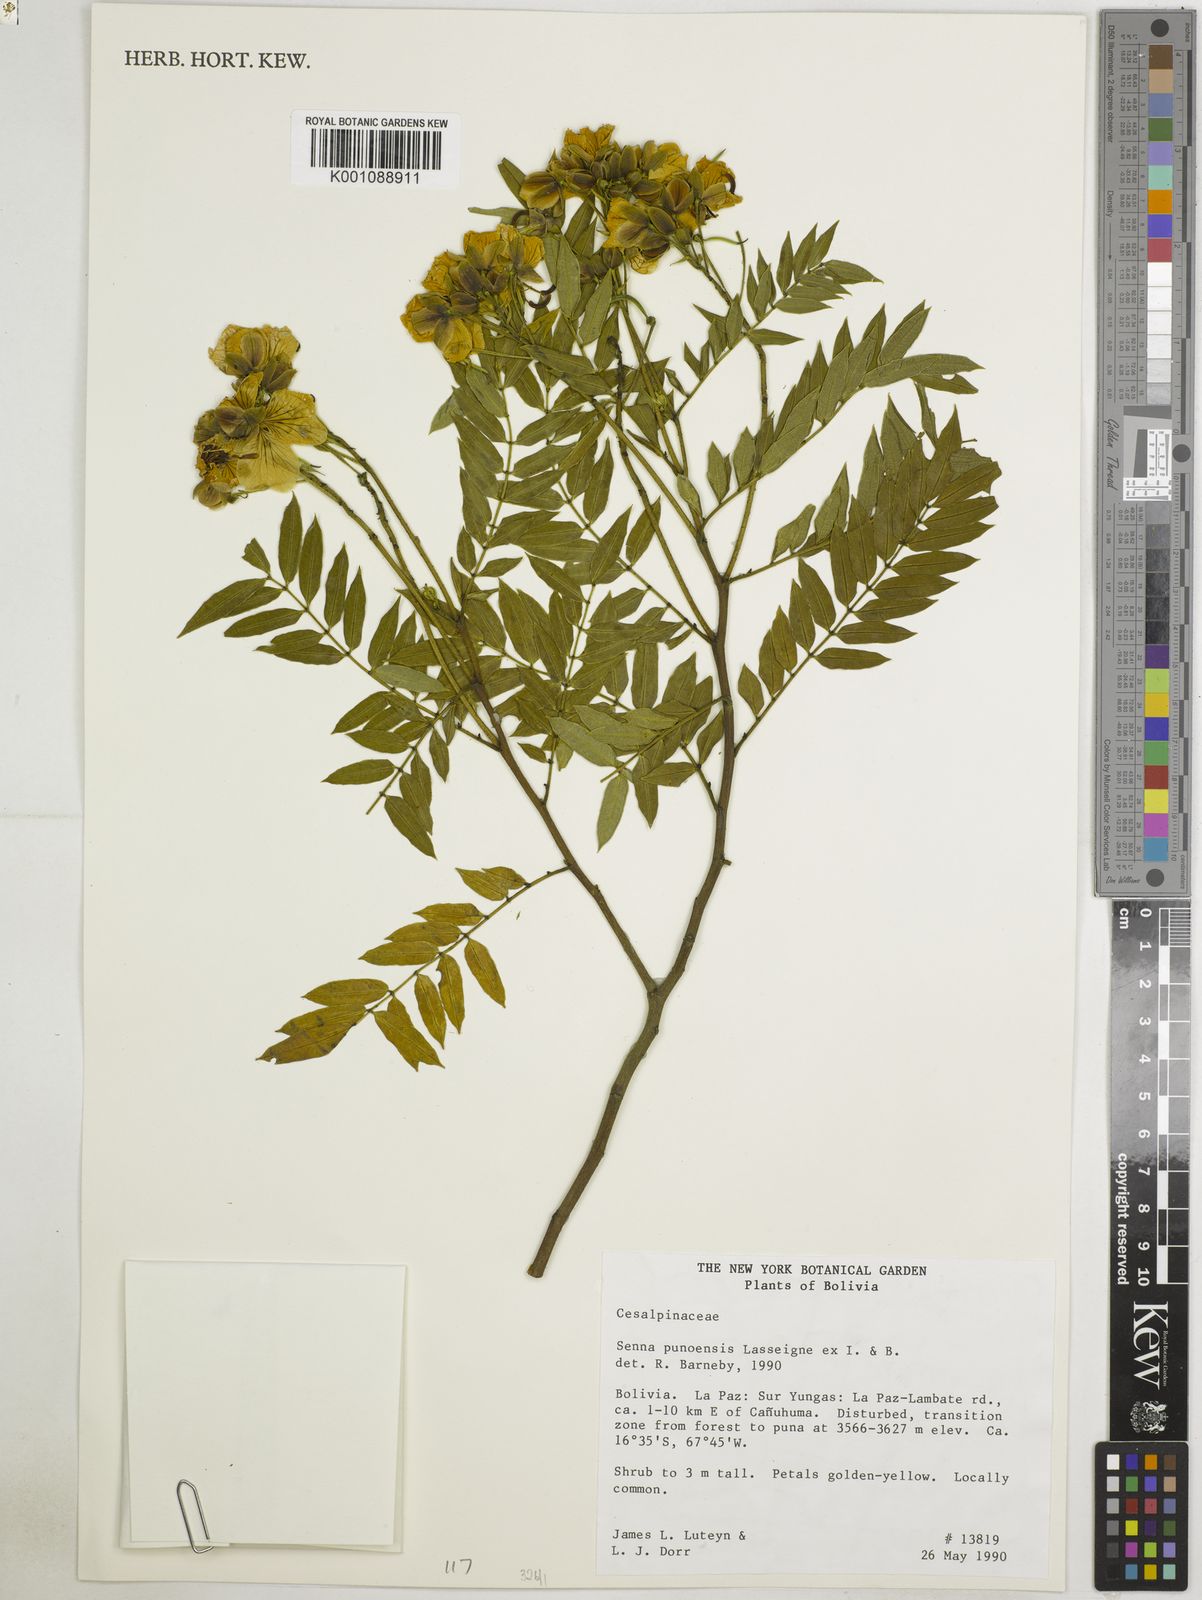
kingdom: Plantae
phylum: Tracheophyta
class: Magnoliopsida
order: Fabales
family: Fabaceae
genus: Senna
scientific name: Senna
